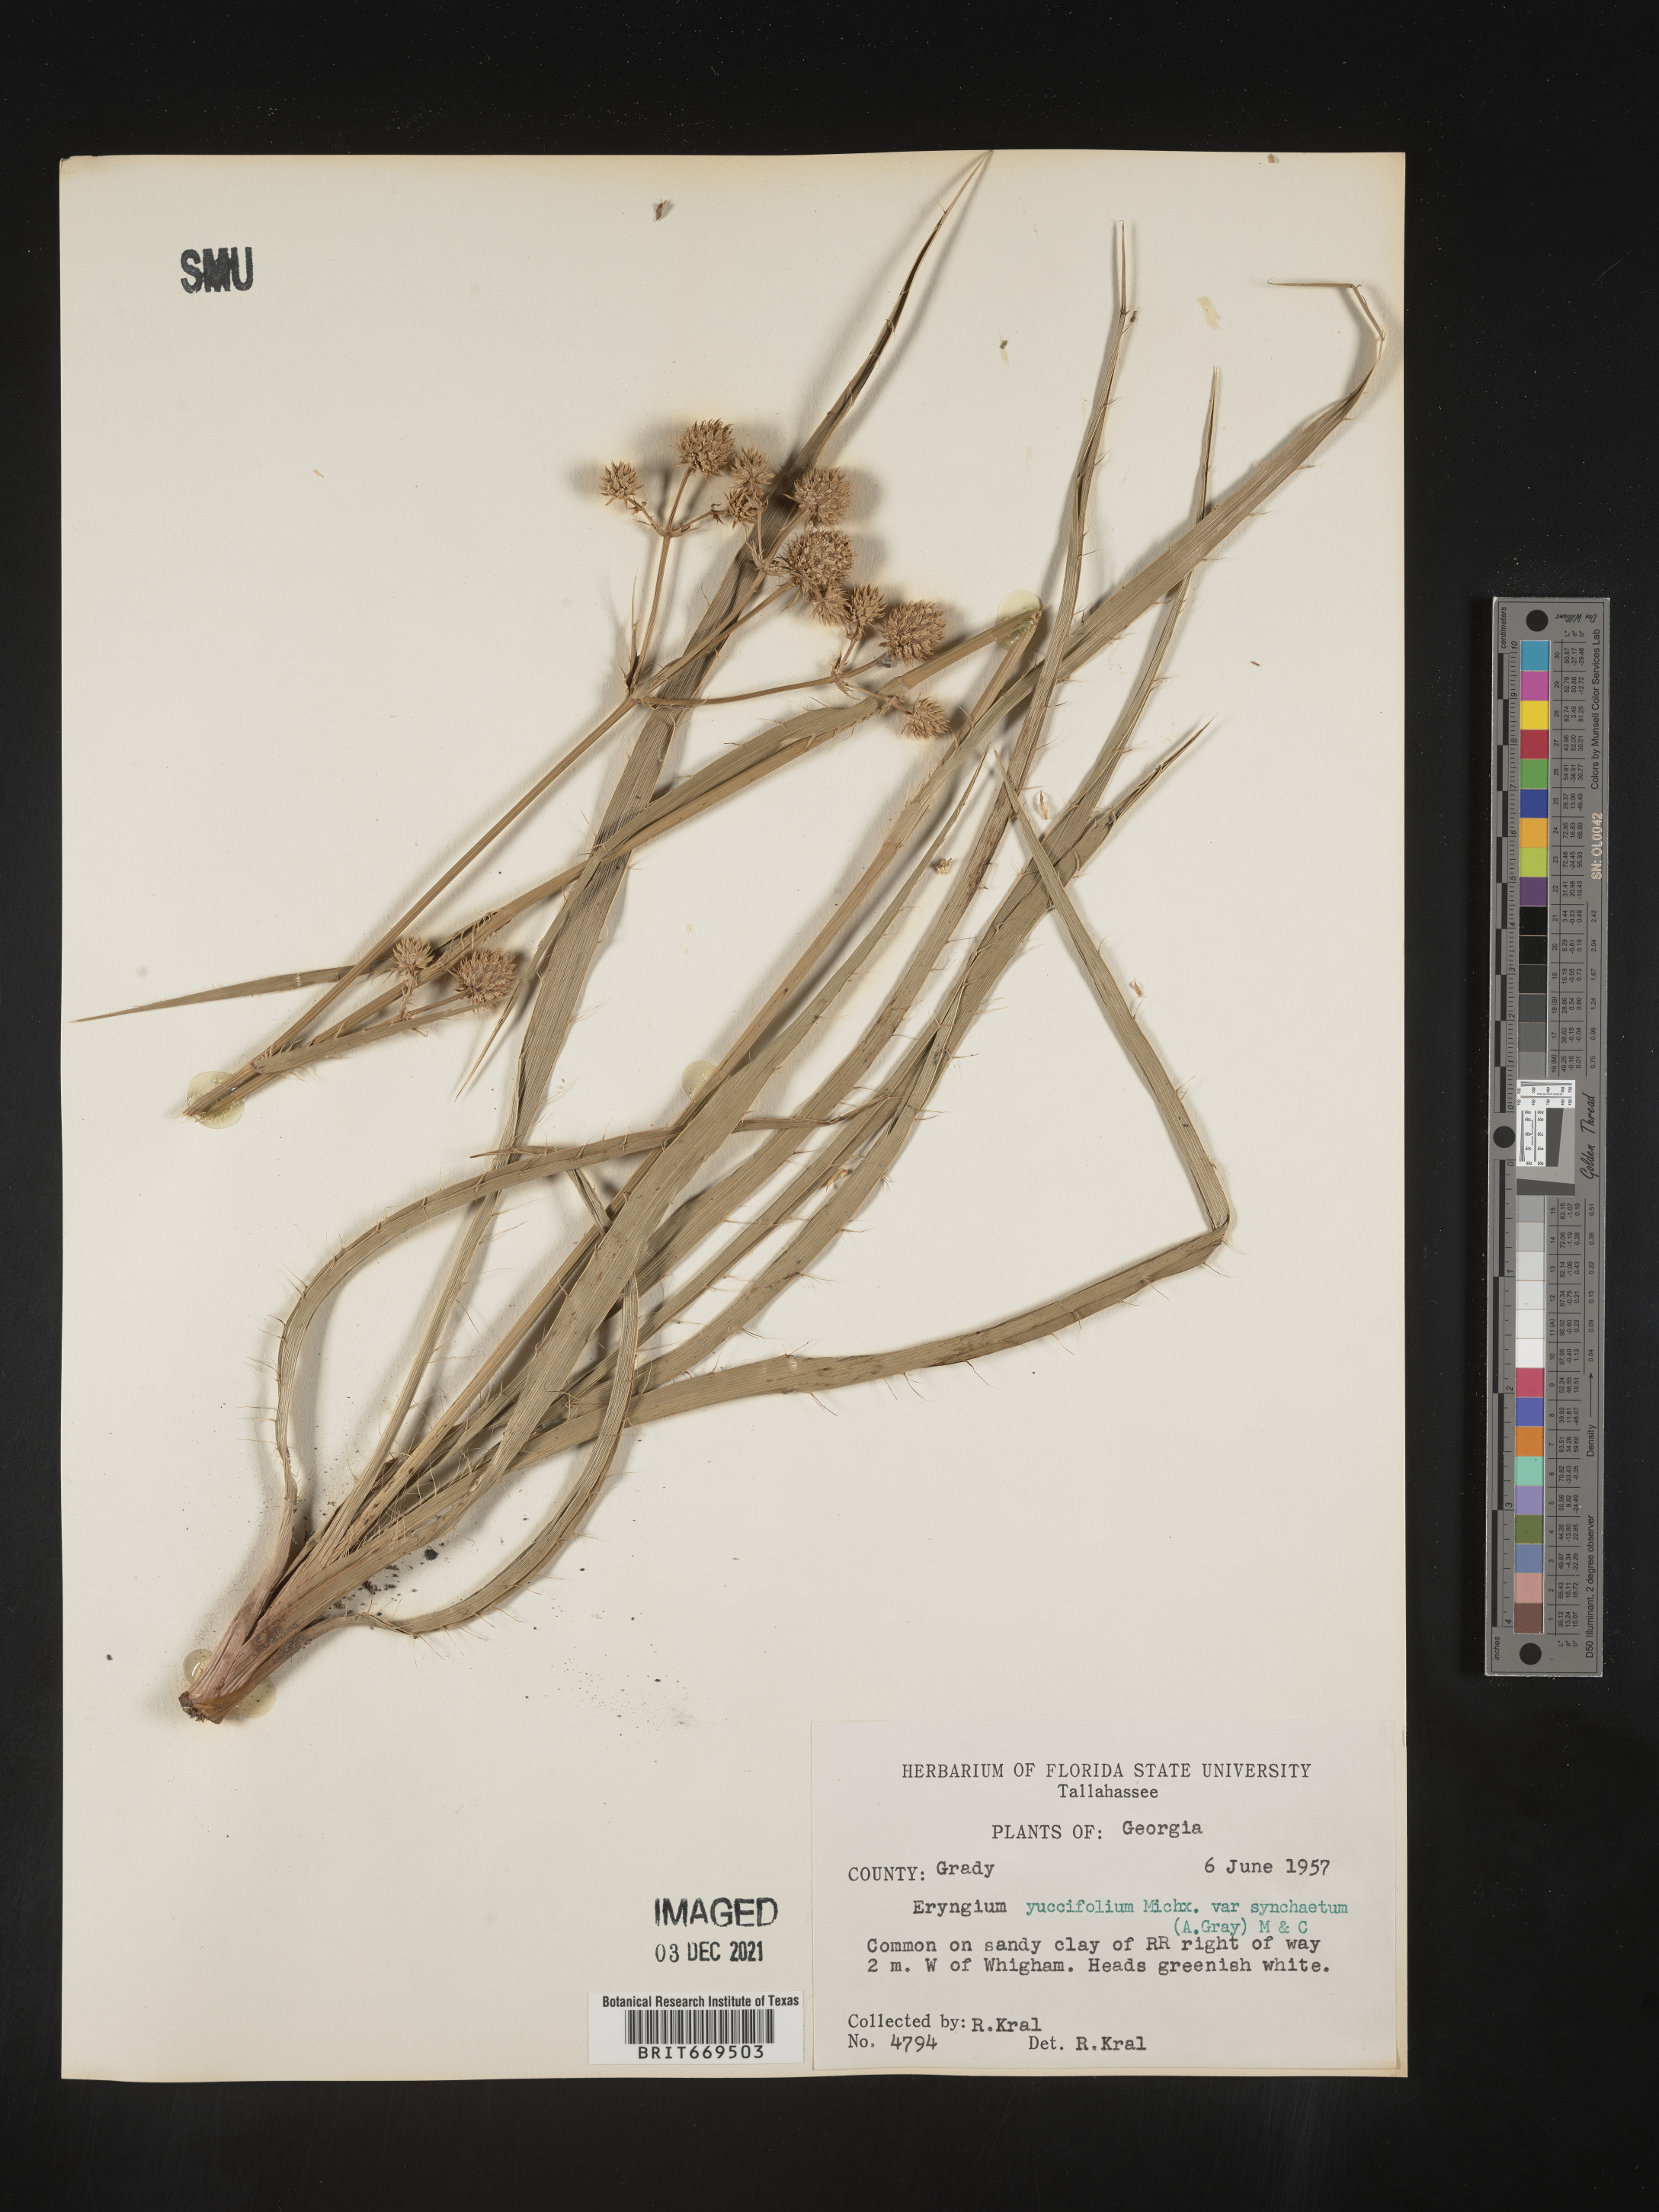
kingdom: Plantae
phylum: Tracheophyta
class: Magnoliopsida
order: Apiales
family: Apiaceae
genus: Eryngium
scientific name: Eryngium yuccifolium
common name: Button eryngo
